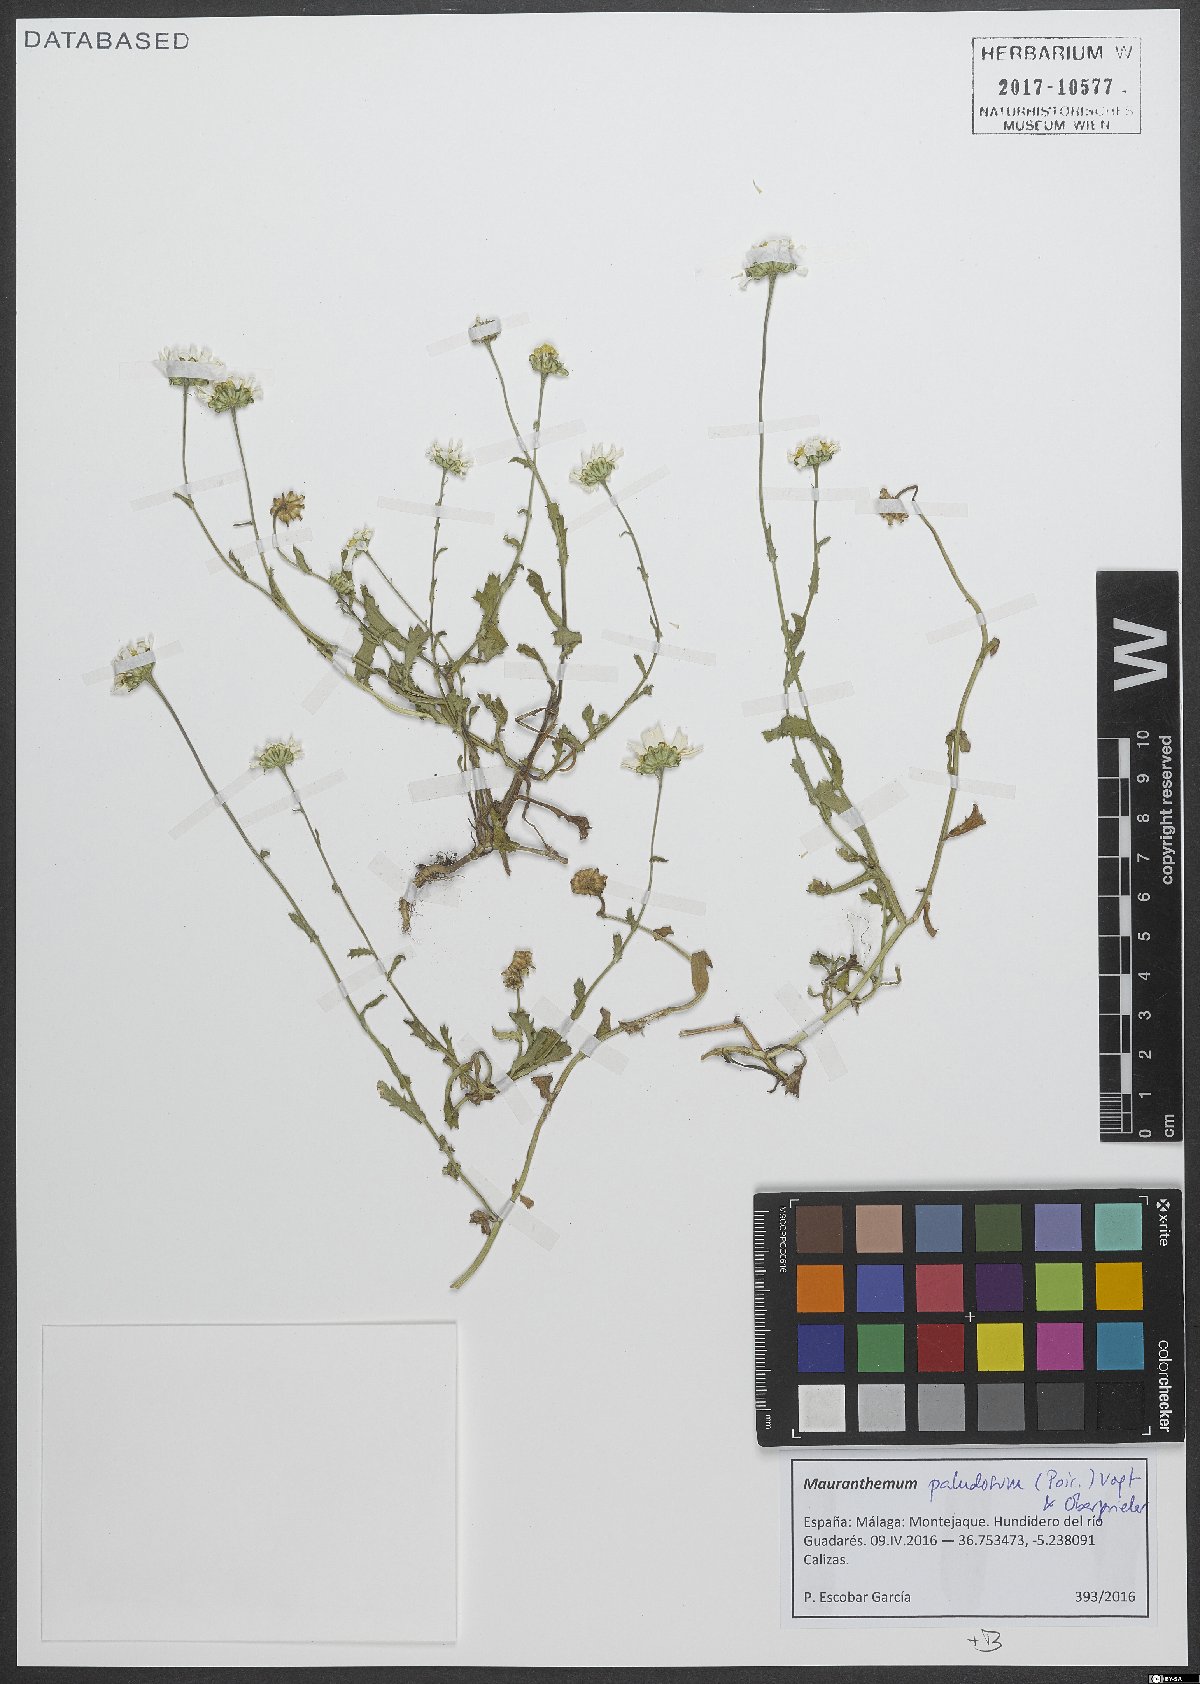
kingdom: Plantae
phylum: Tracheophyta
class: Magnoliopsida
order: Asterales
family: Asteraceae
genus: Mauranthemum
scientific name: Mauranthemum paludosum
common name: Sunflower
